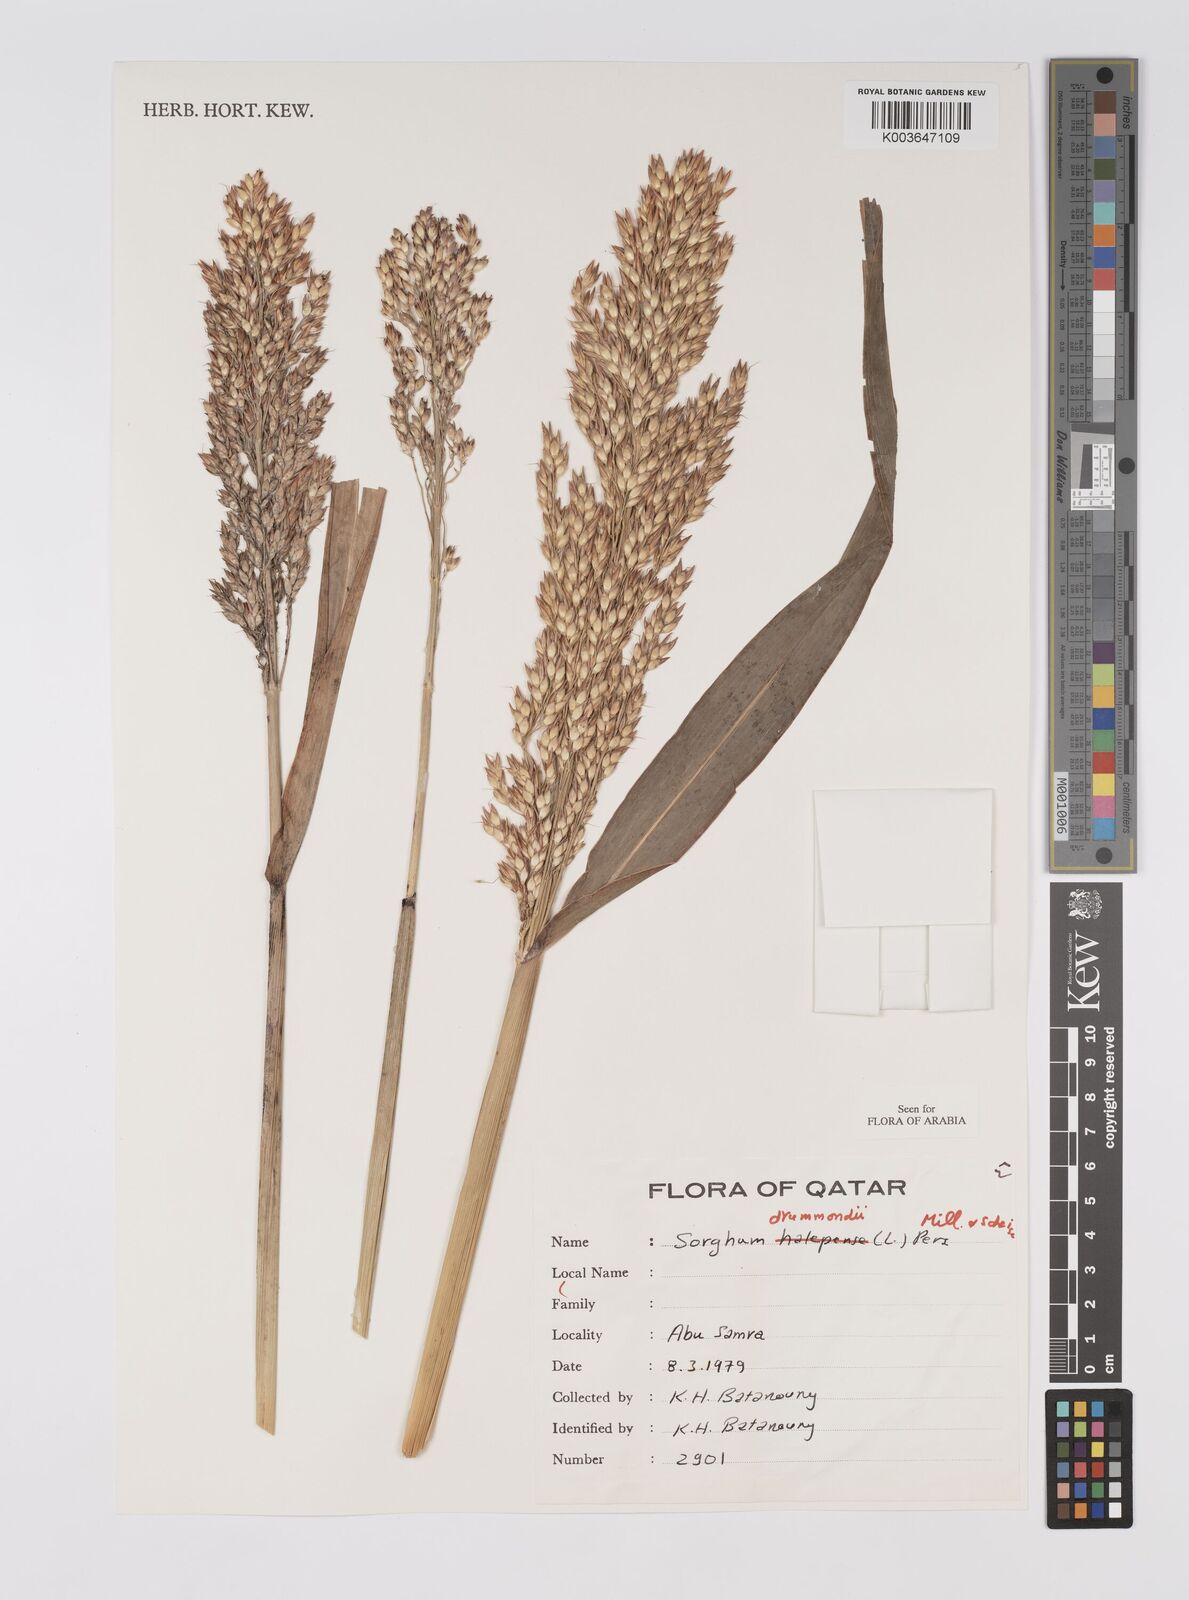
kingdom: Plantae
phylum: Tracheophyta
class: Liliopsida
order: Poales
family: Poaceae
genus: Sorghum
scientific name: Sorghum drummondii
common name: Sudangrass
